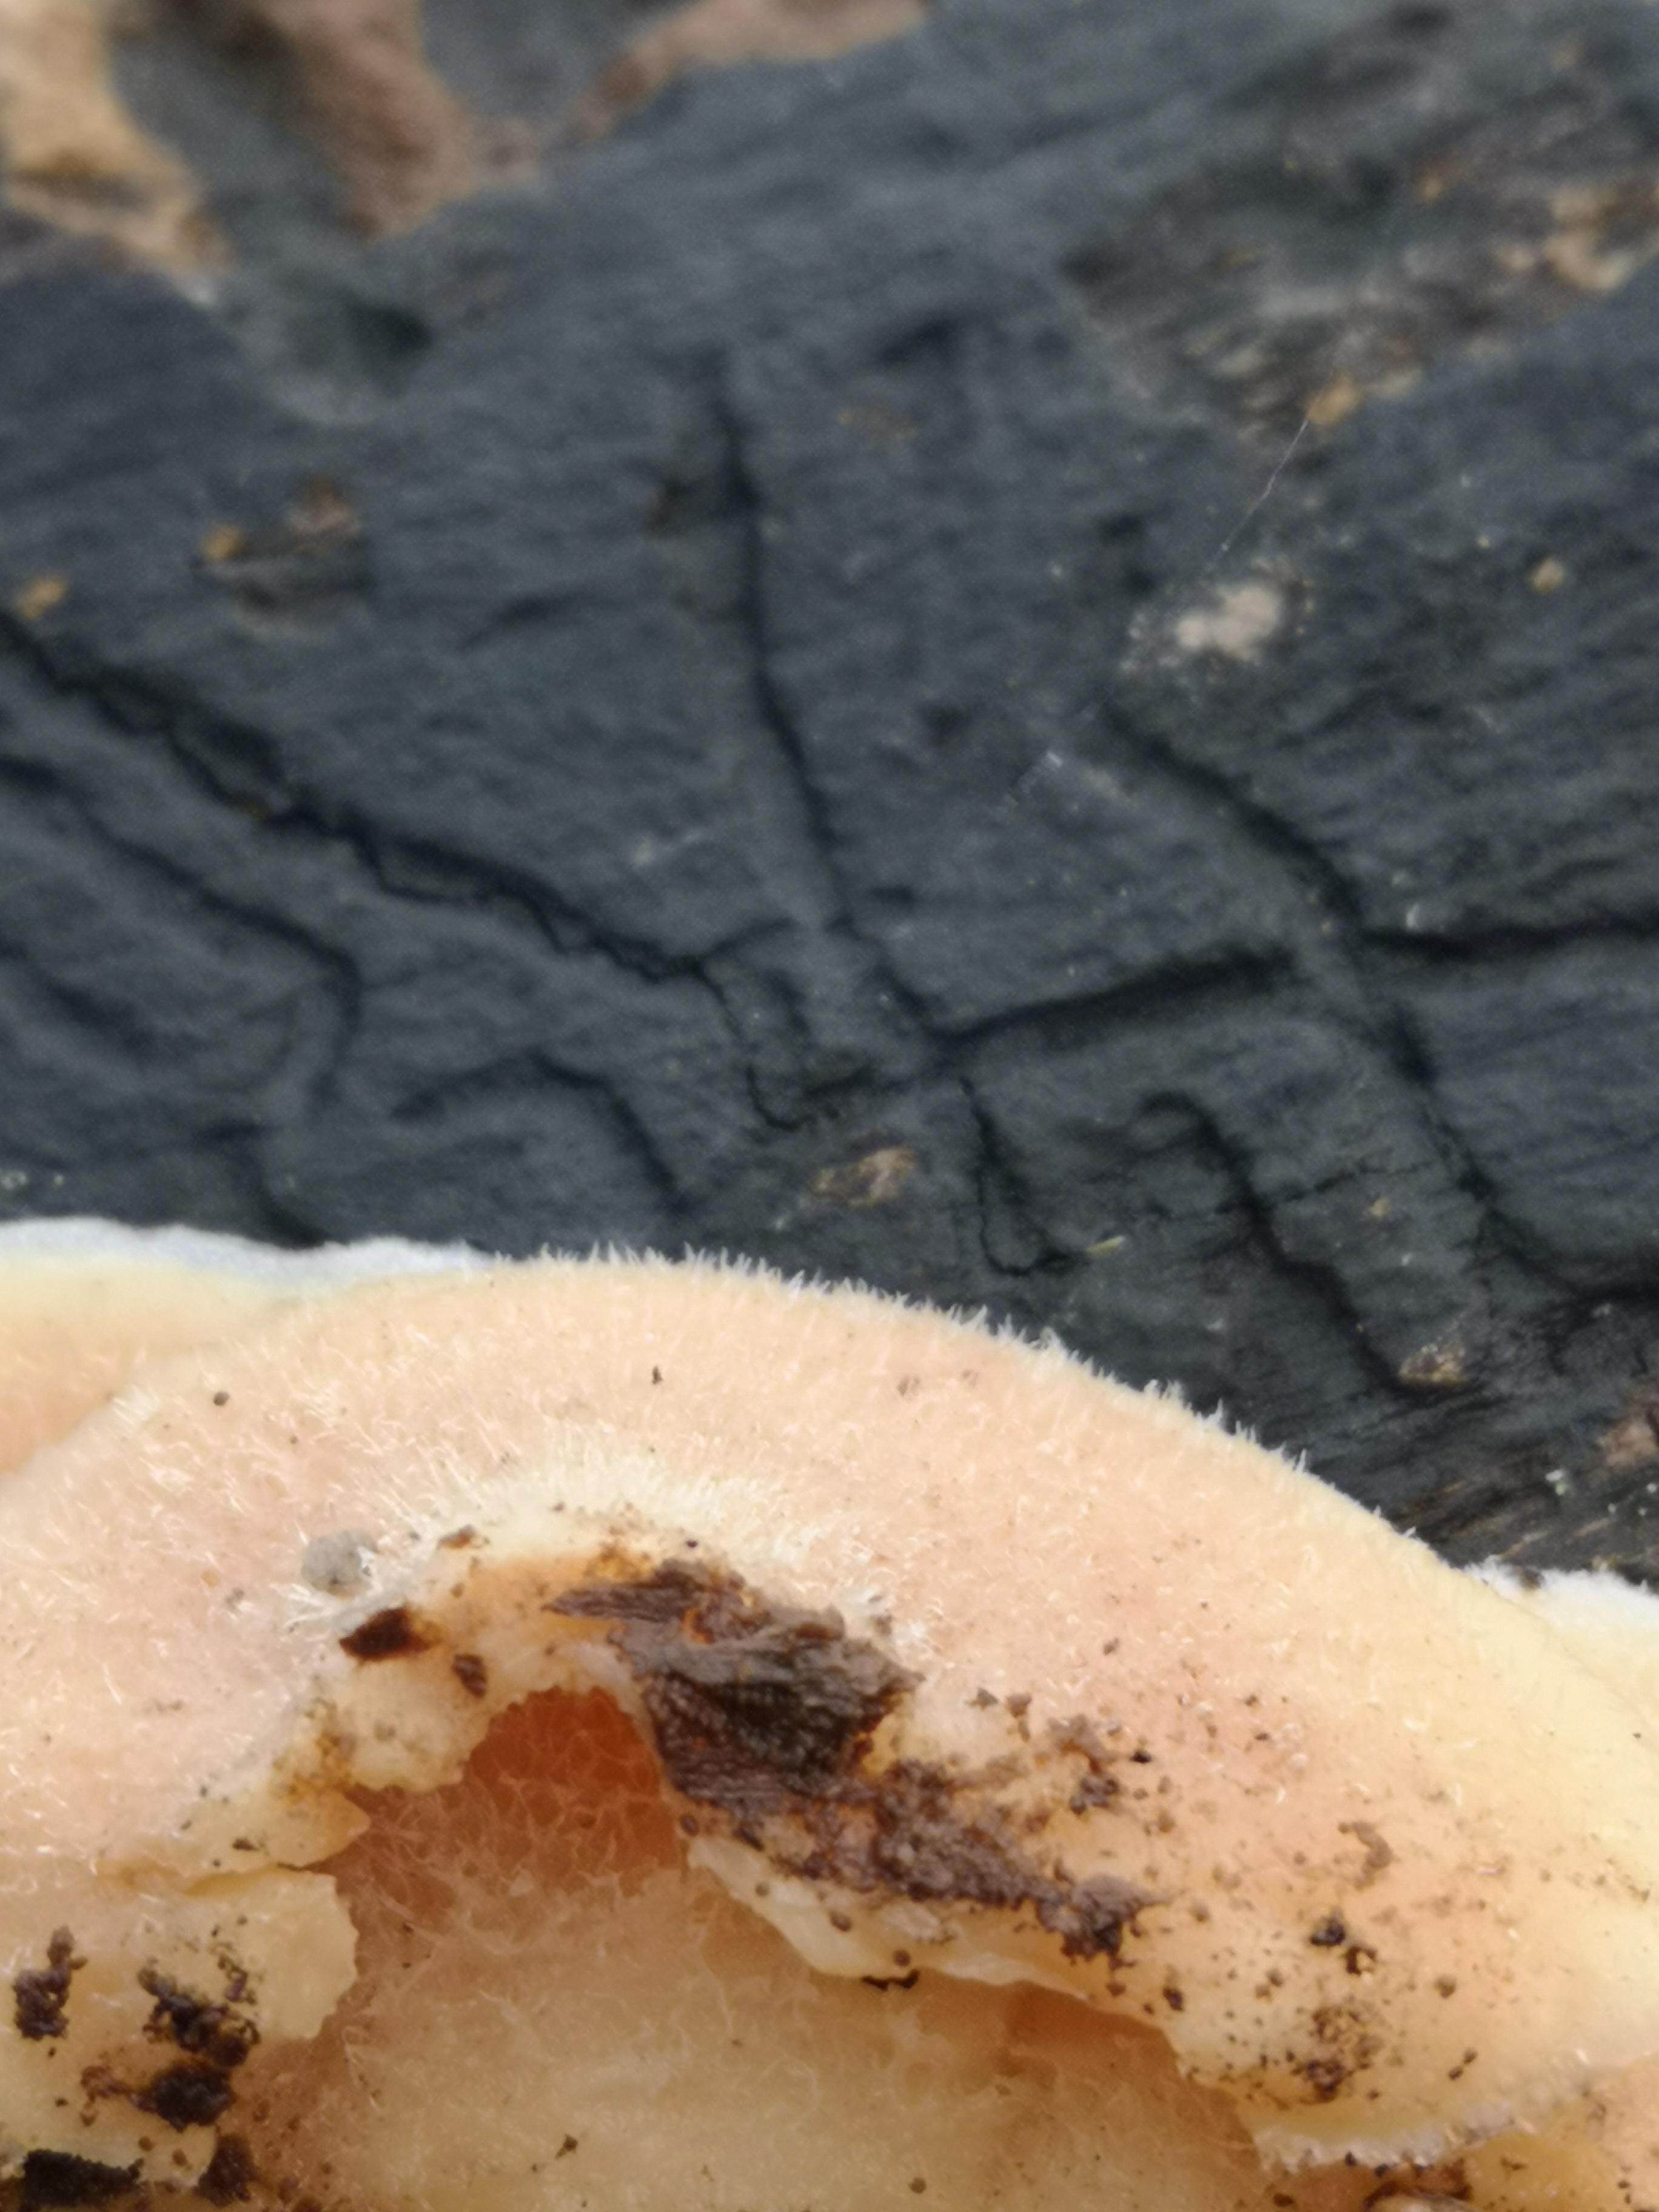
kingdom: Fungi
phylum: Basidiomycota
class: Agaricomycetes
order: Polyporales
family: Meruliaceae
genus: Phlebia
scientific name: Phlebia tremellosa
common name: bævrende åresvamp
